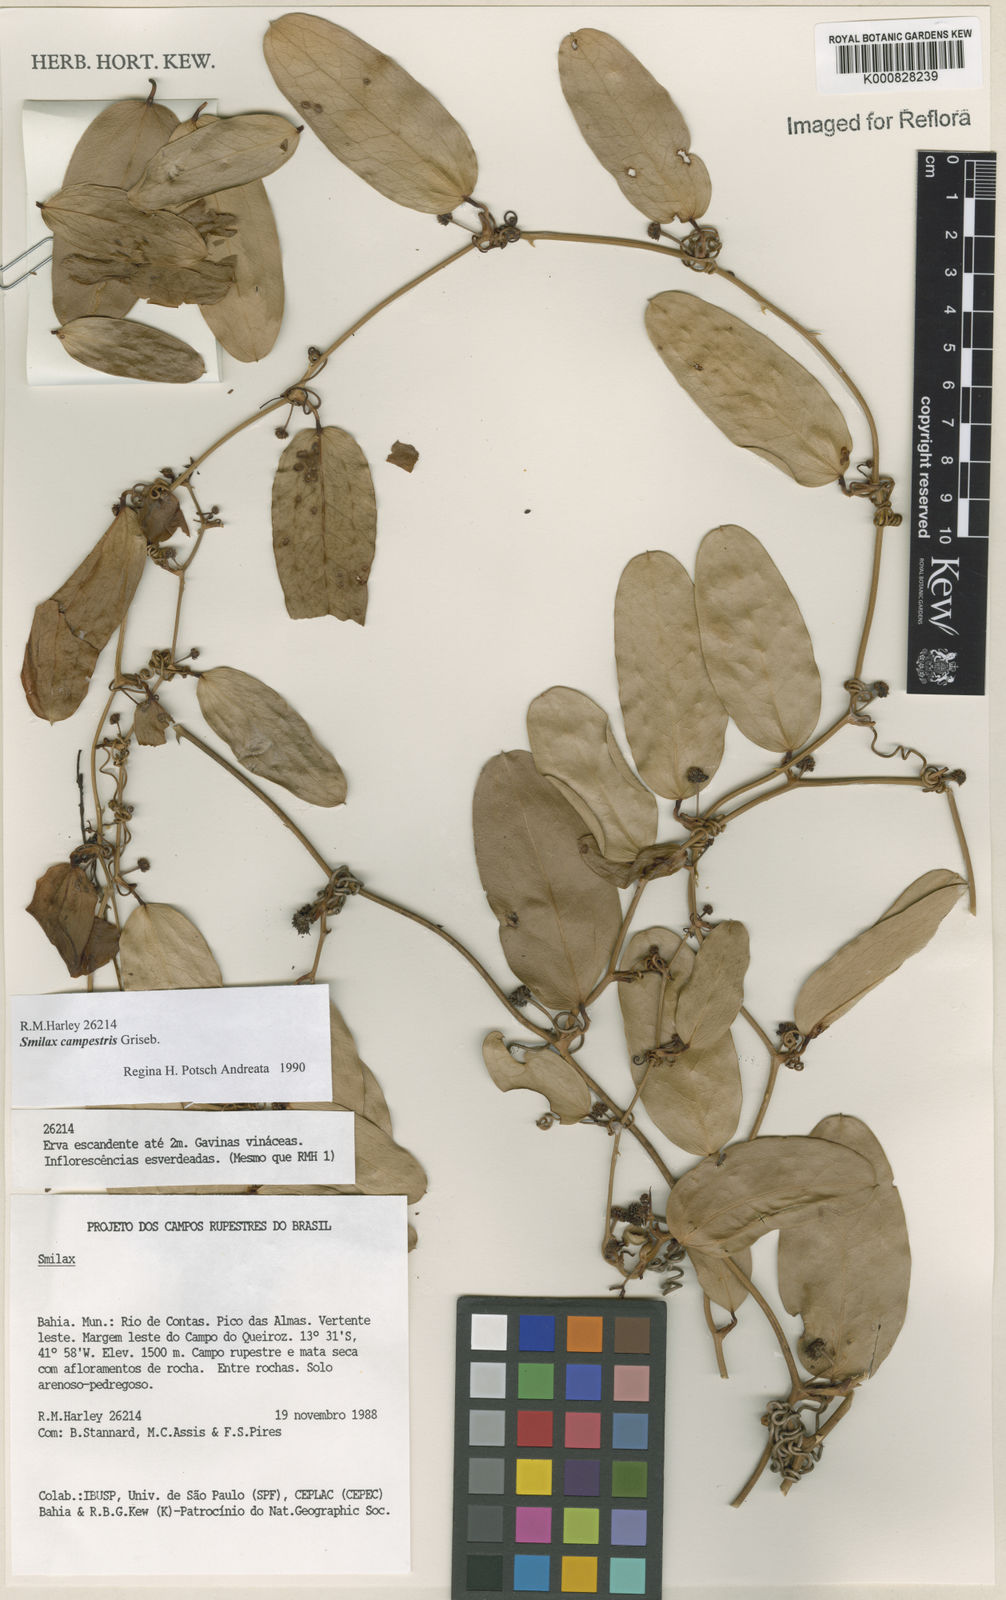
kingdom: Plantae
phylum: Tracheophyta
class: Liliopsida
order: Liliales
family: Smilacaceae
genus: Smilax
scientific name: Smilax campestris
